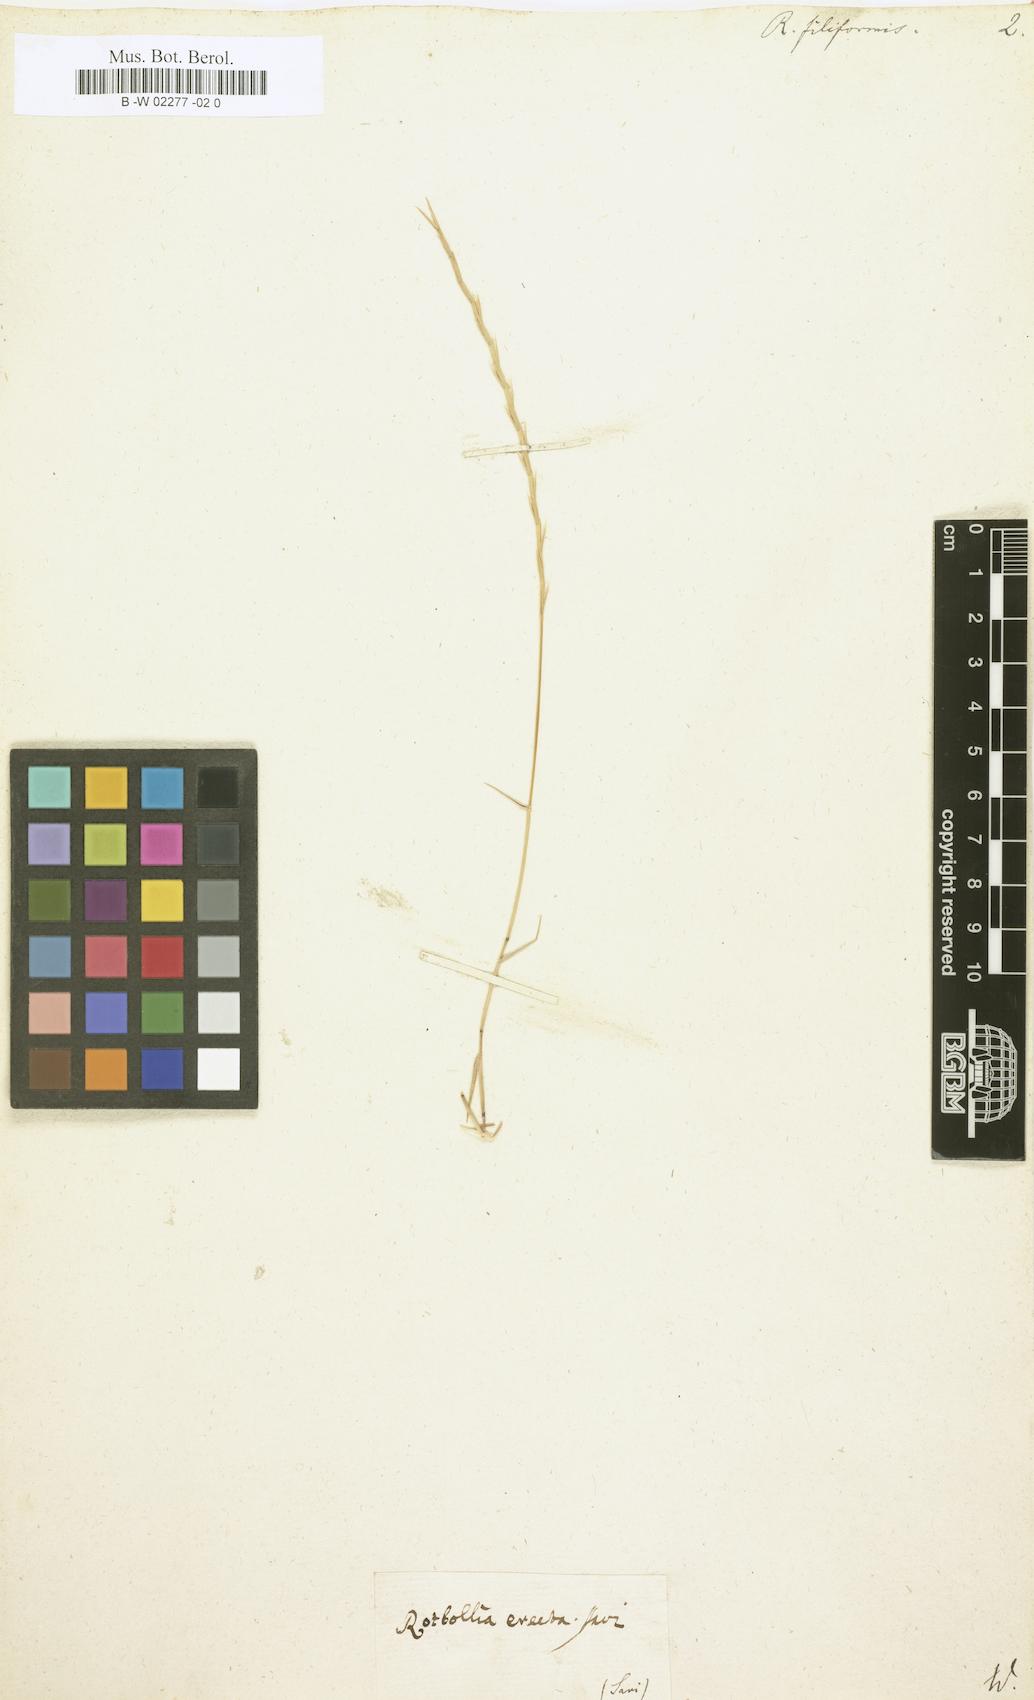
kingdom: Plantae
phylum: Tracheophyta
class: Liliopsida
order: Poales
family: Poaceae
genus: Parapholis
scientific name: Parapholis filiformis
